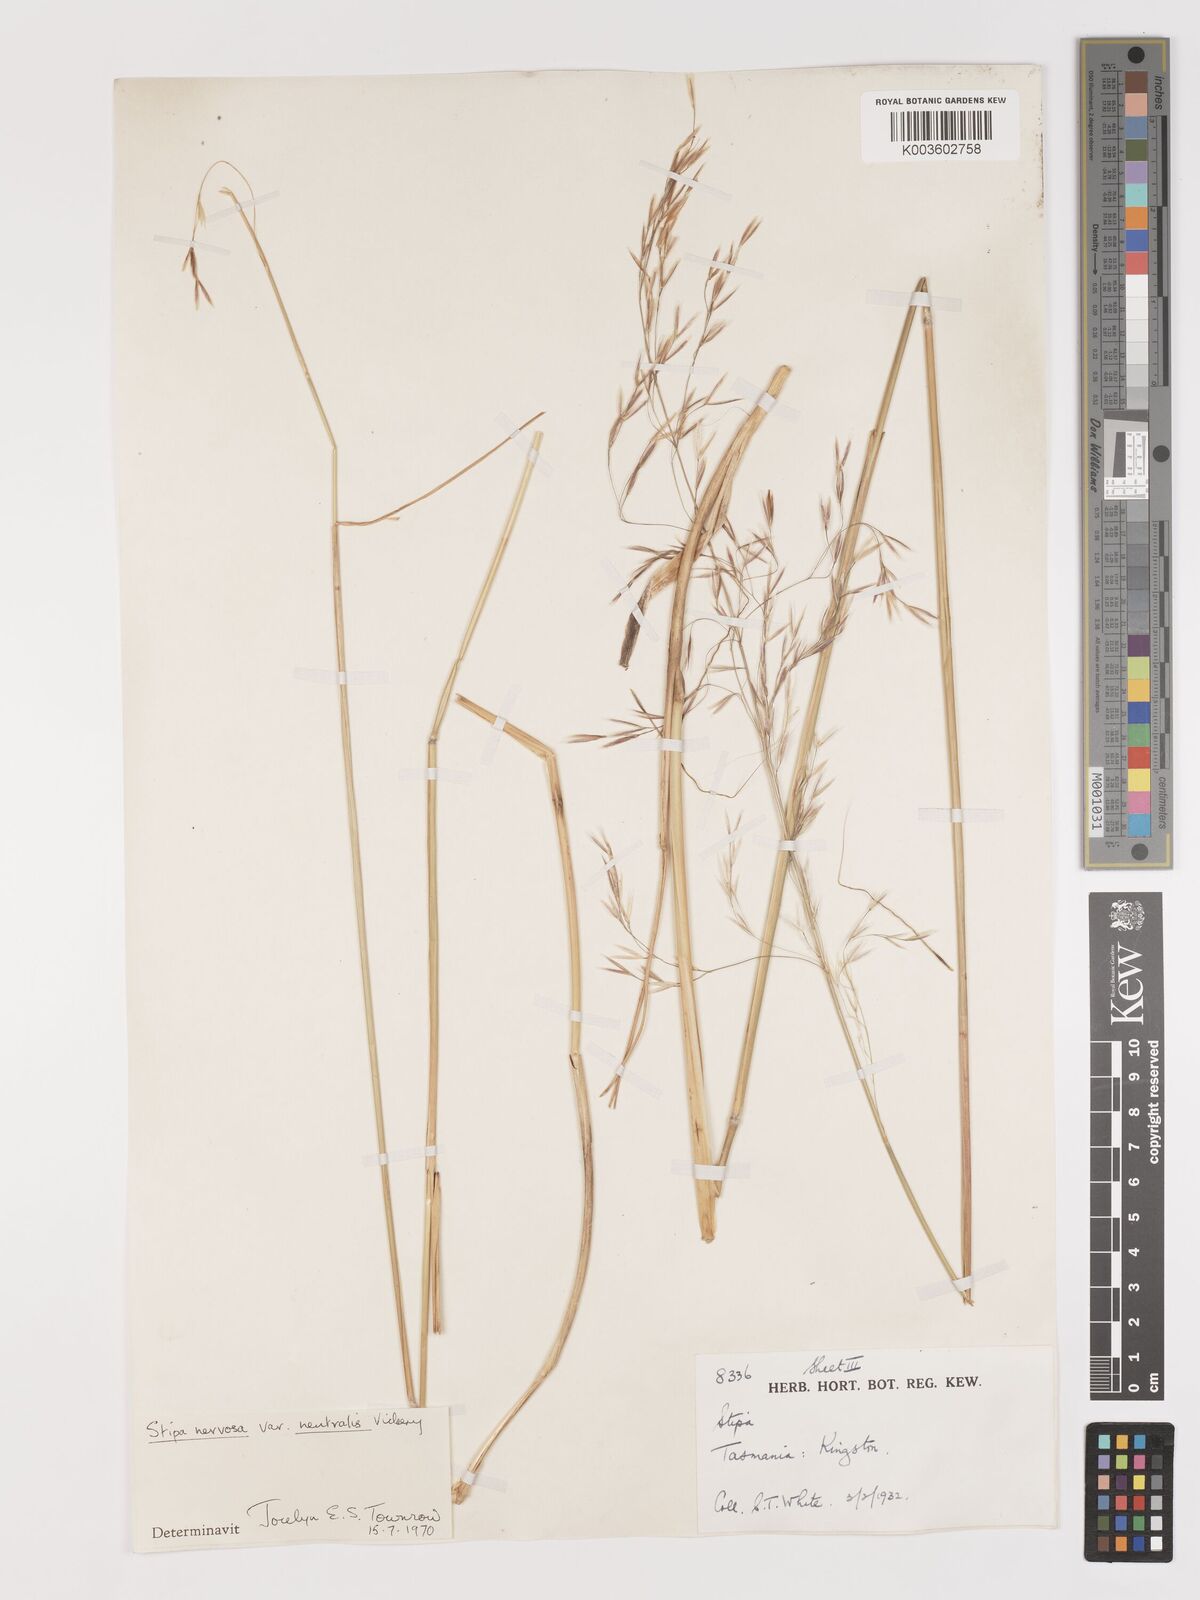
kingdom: Plantae
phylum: Tracheophyta
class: Liliopsida
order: Poales
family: Poaceae
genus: Austrostipa
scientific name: Austrostipa rudis
